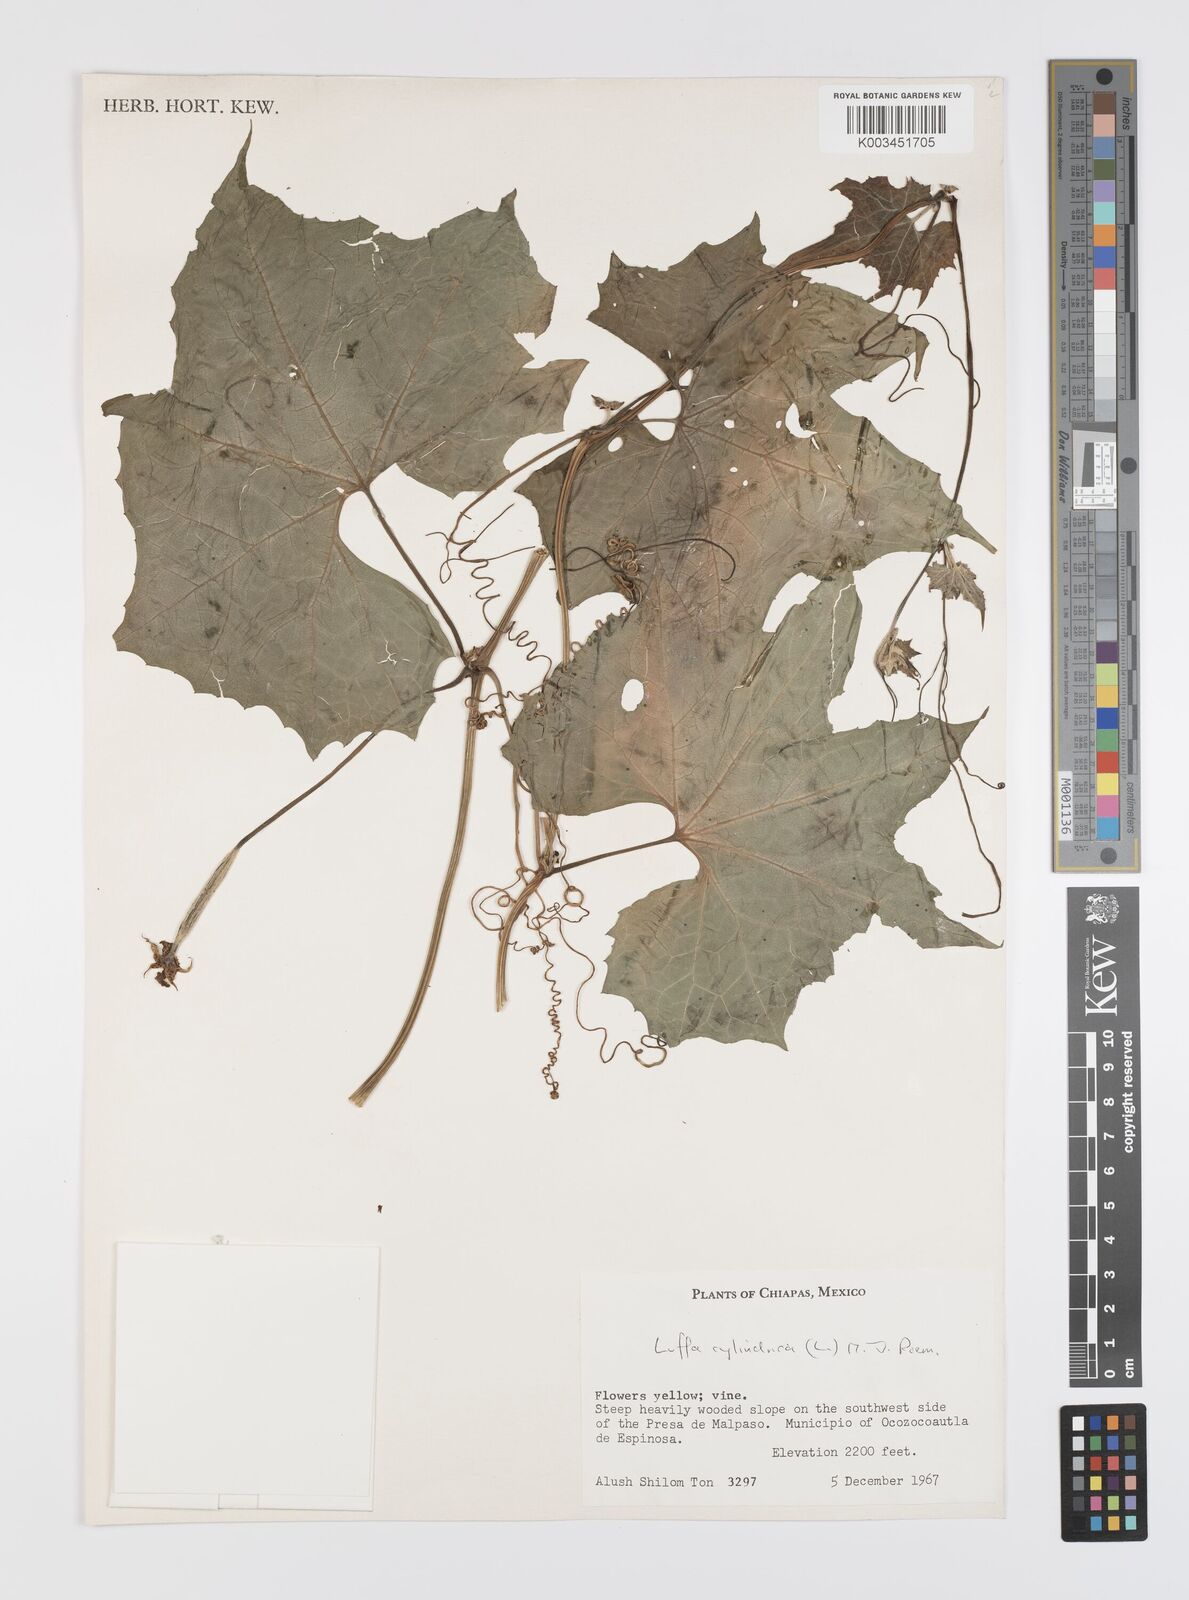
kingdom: Plantae
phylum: Tracheophyta
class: Magnoliopsida
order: Cucurbitales
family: Cucurbitaceae
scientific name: Cucurbitaceae
